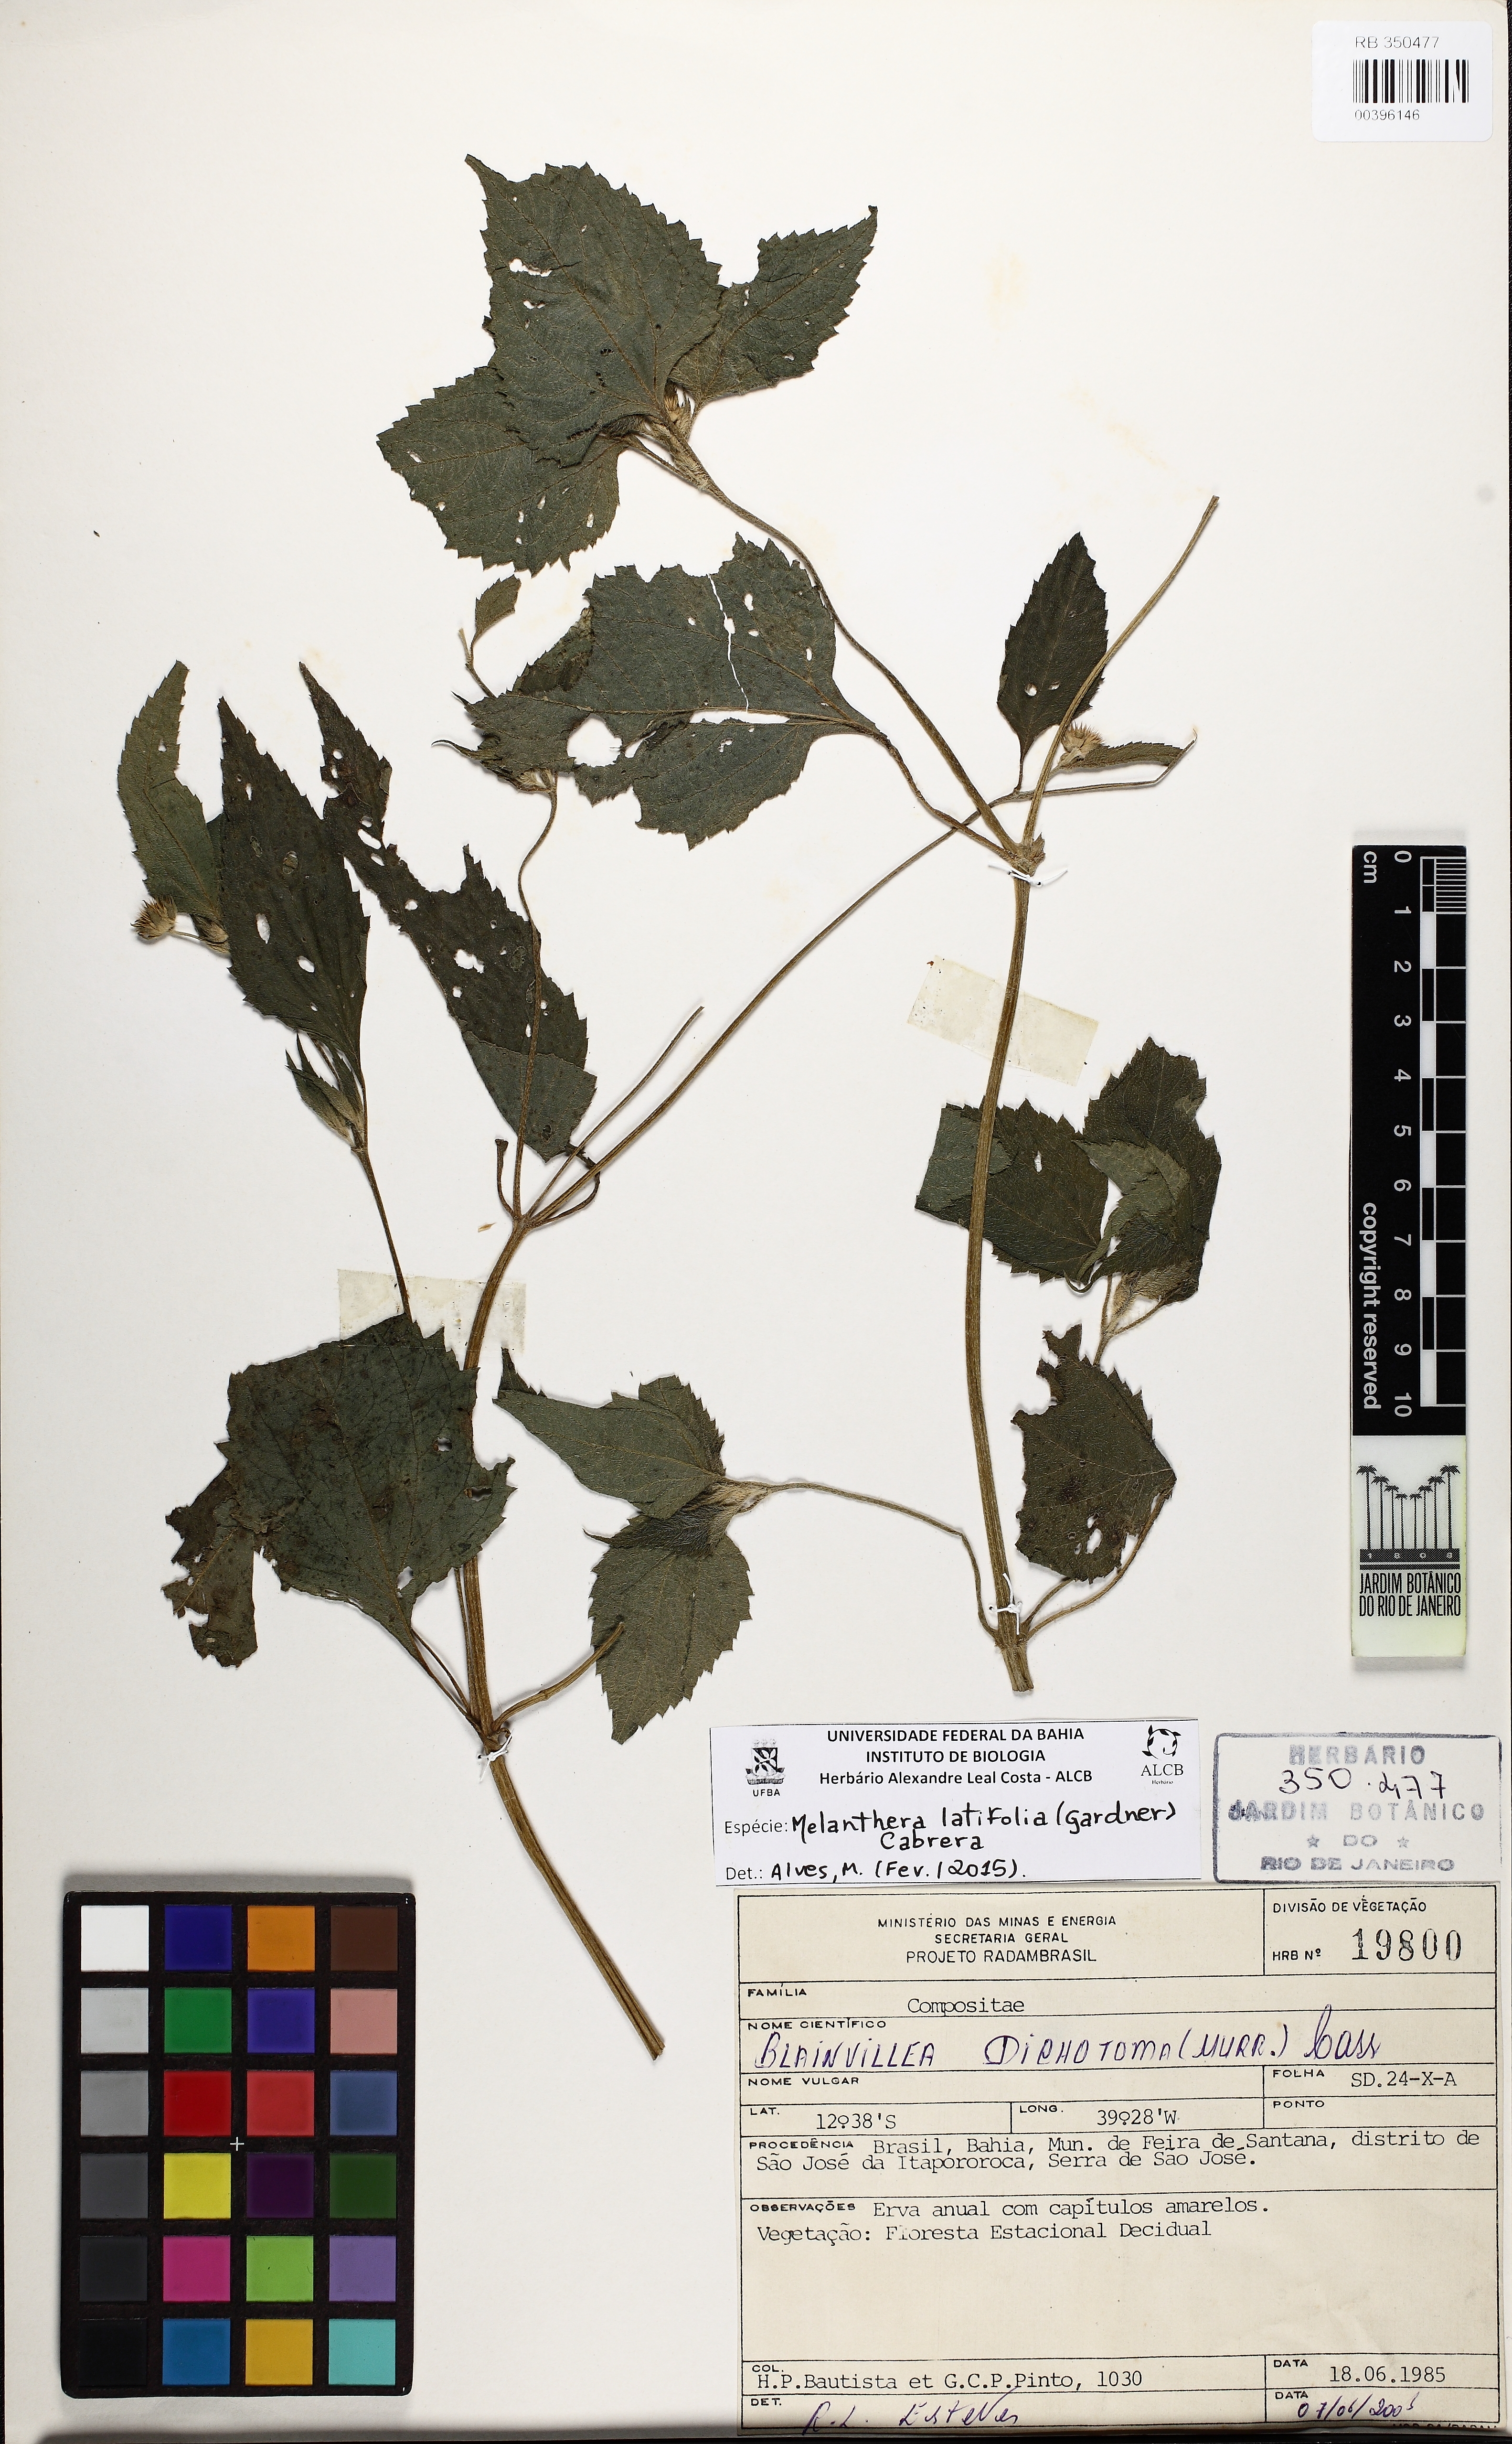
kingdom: Plantae
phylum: Tracheophyta
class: Magnoliopsida
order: Asterales
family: Asteraceae
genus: Echinocephalum
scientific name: Echinocephalum latifolium
